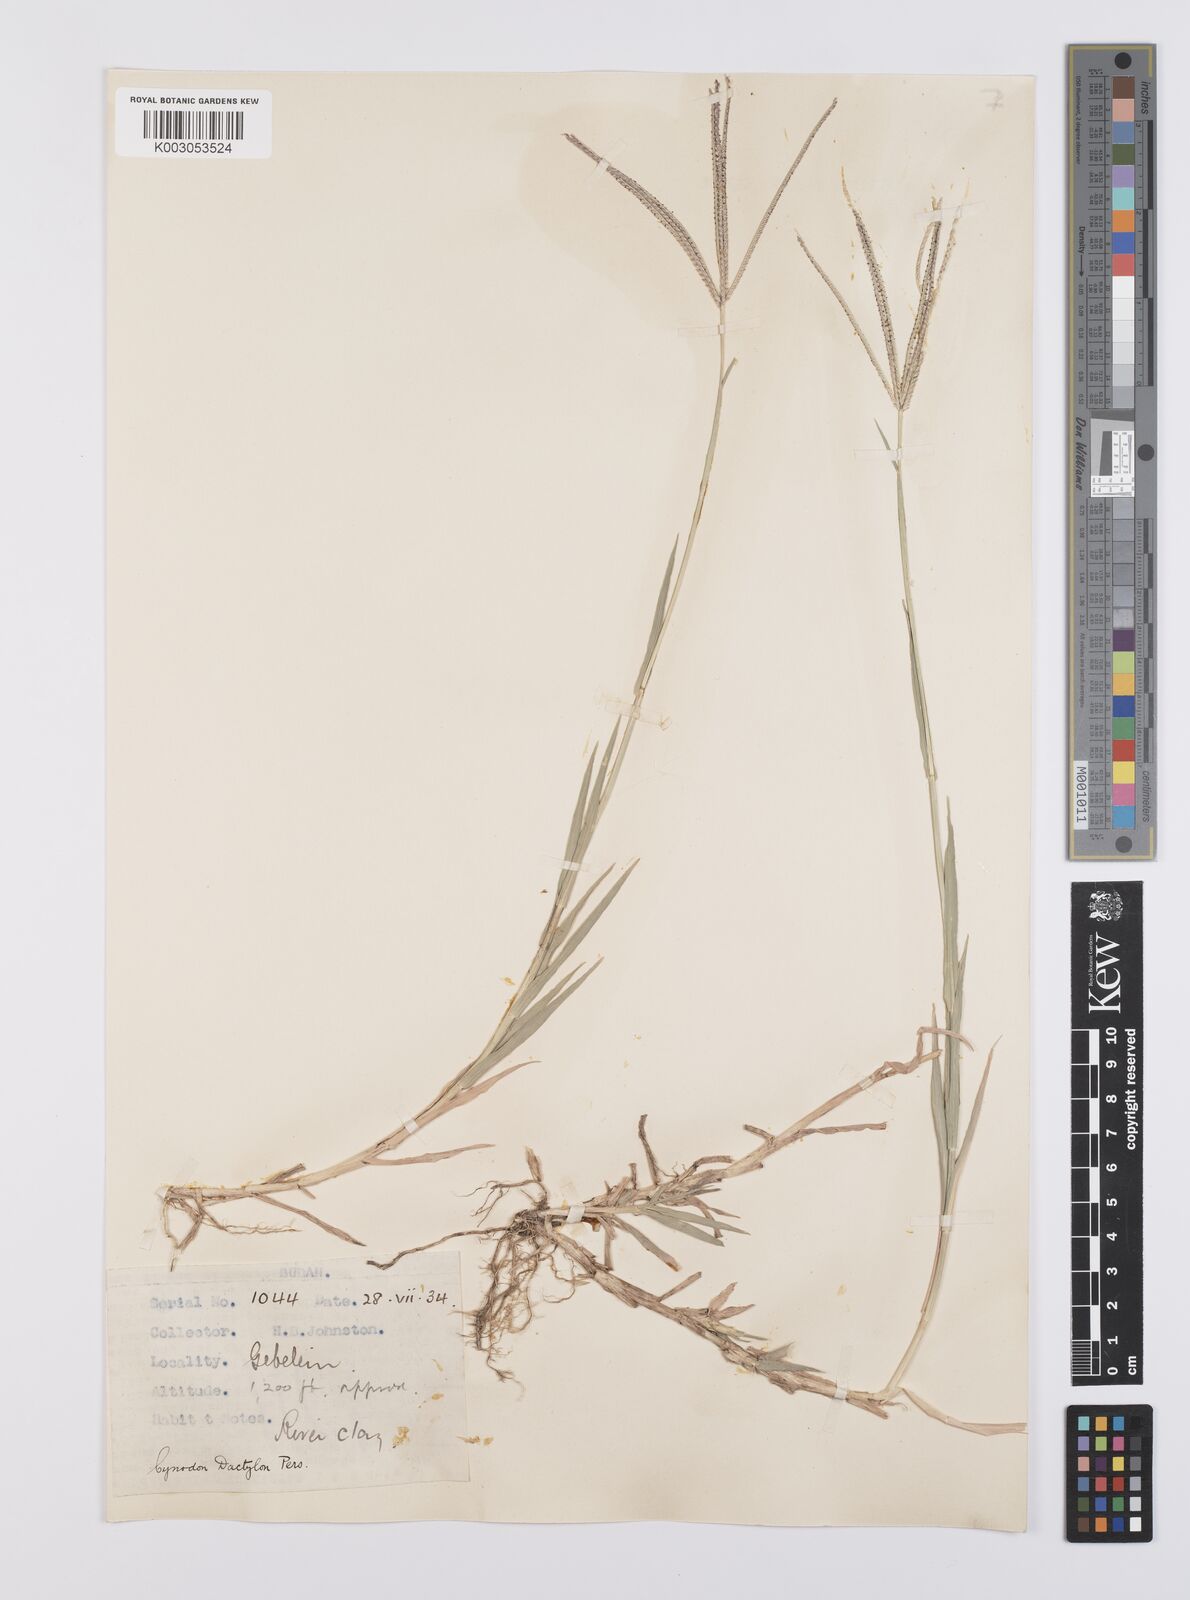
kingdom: Plantae
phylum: Tracheophyta
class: Liliopsida
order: Poales
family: Poaceae
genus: Cynodon
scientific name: Cynodon dactylon
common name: Bermuda grass
